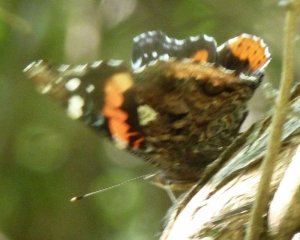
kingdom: Animalia
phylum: Arthropoda
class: Insecta
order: Lepidoptera
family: Nymphalidae
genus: Vanessa
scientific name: Vanessa atalanta
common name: Red Admiral
